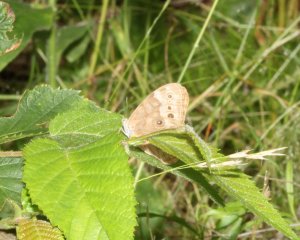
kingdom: Animalia
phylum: Arthropoda
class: Insecta
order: Lepidoptera
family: Nymphalidae
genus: Lethe
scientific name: Lethe anthedon
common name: Northern Pearly-Eye
